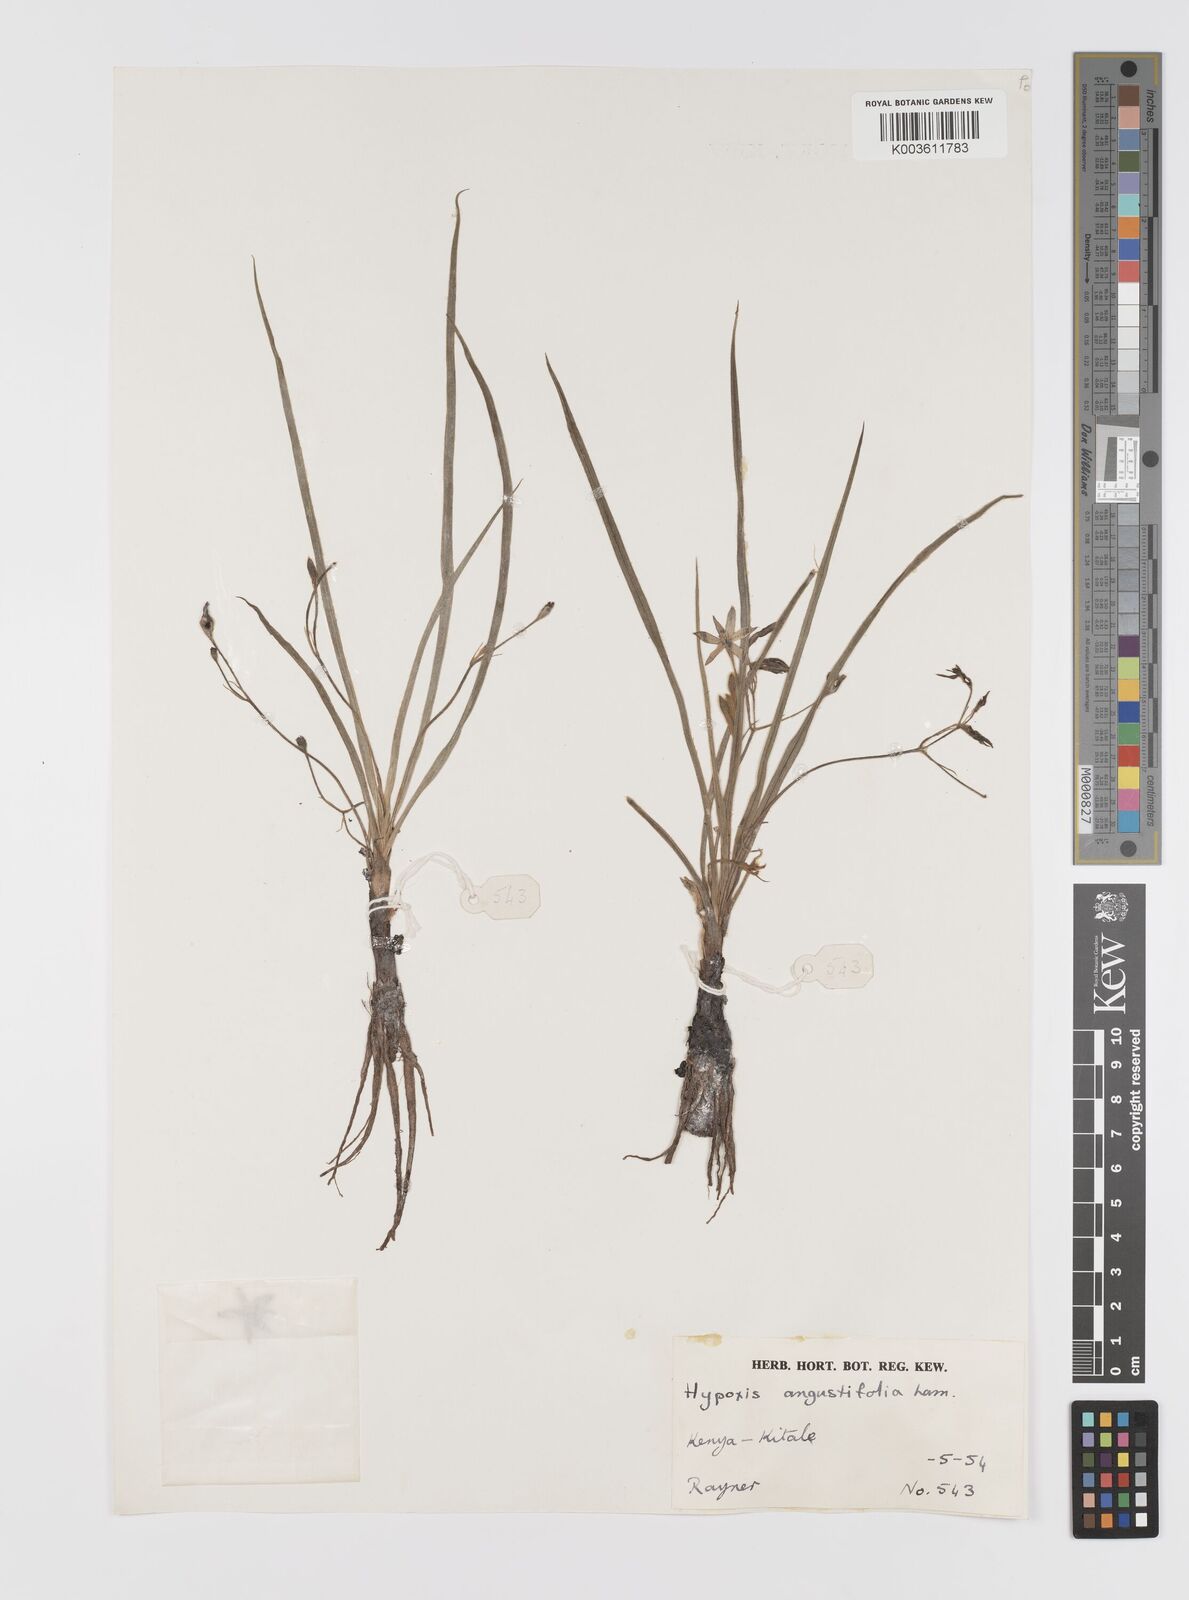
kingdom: Plantae
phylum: Tracheophyta
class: Liliopsida
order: Asparagales
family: Hypoxidaceae
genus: Hypoxis
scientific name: Hypoxis angustifolia
